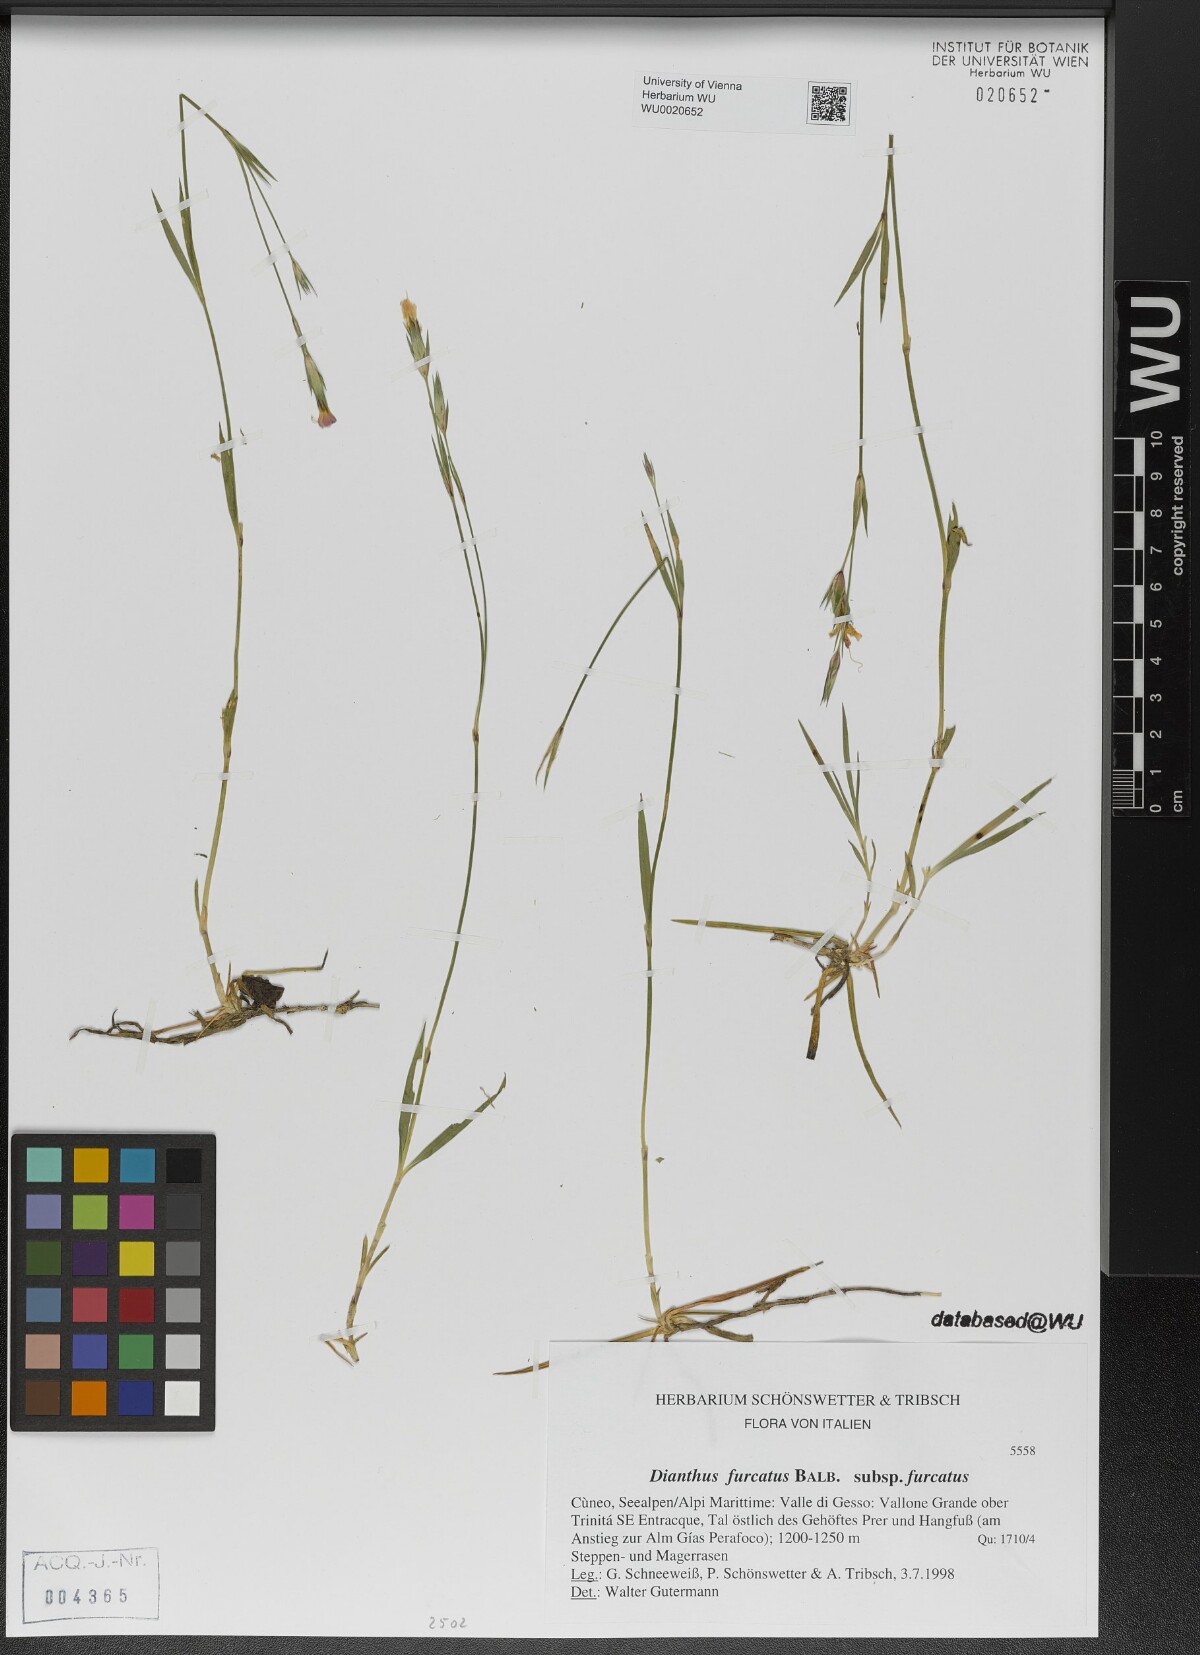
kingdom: Plantae
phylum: Tracheophyta
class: Magnoliopsida
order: Caryophyllales
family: Caryophyllaceae
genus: Dianthus
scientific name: Dianthus furcatus
